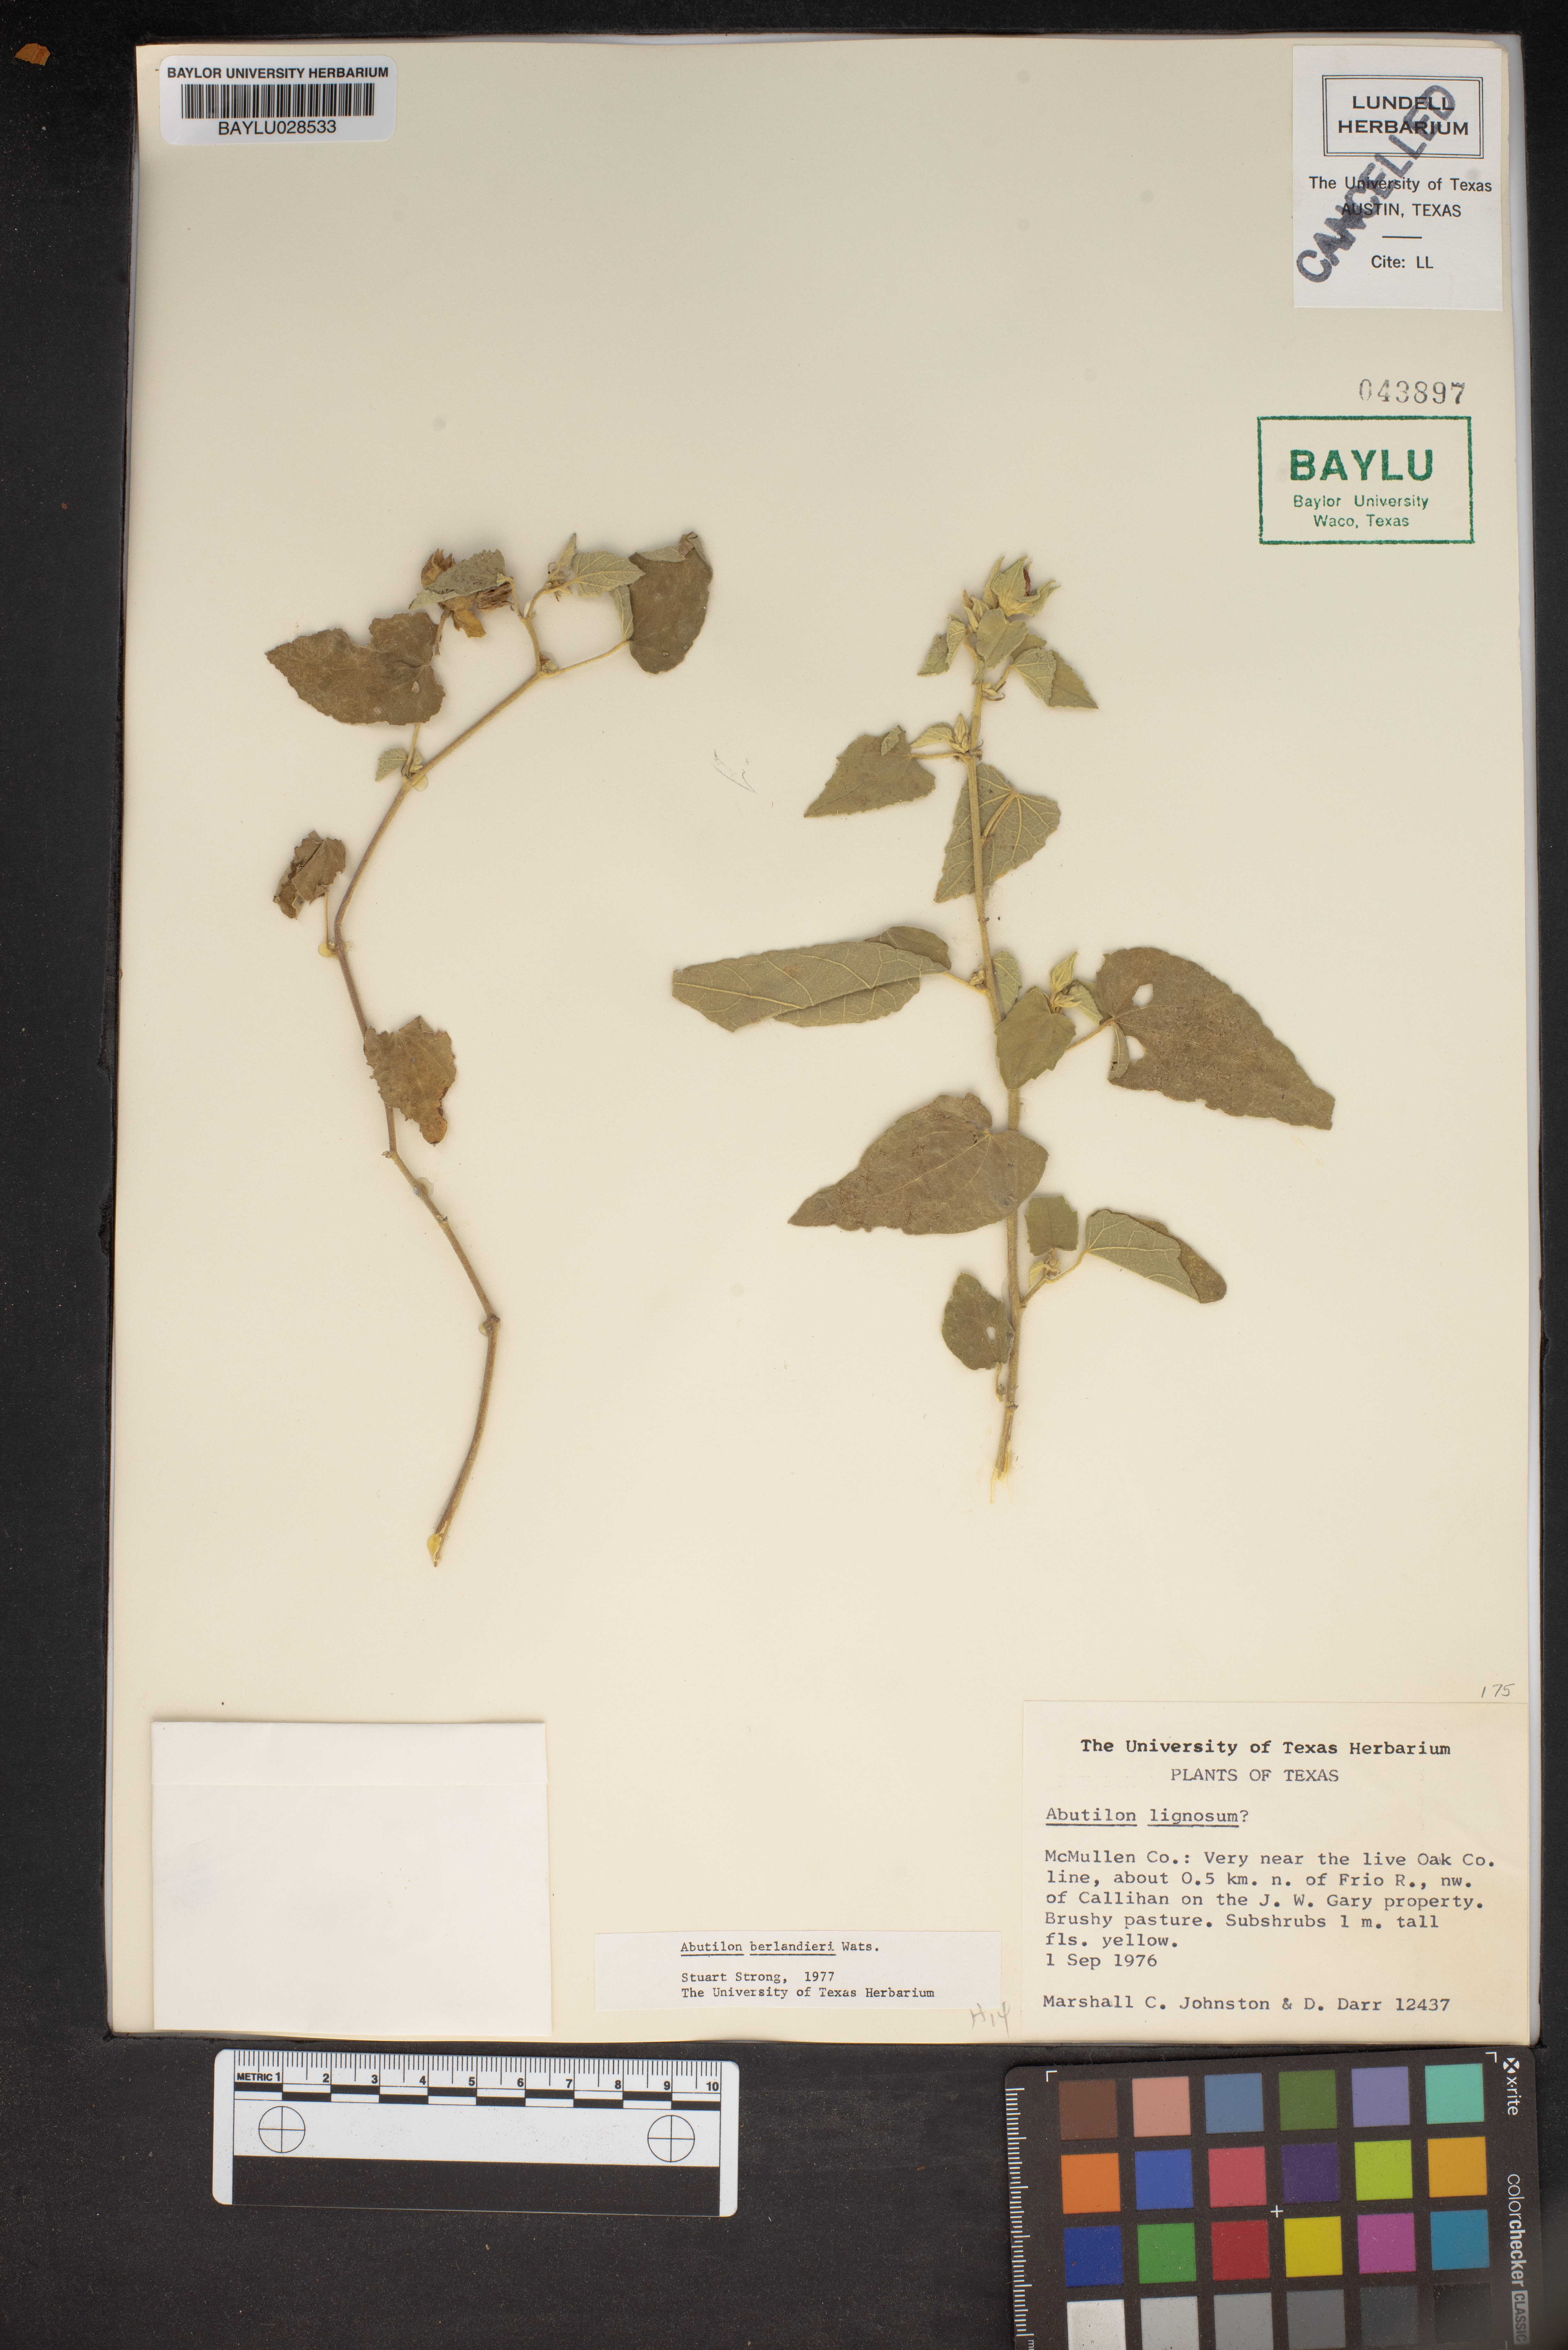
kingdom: Plantae
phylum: Tracheophyta
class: Magnoliopsida
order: Malvales
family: Malvaceae
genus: Abutilon
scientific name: Abutilon berlandieri
